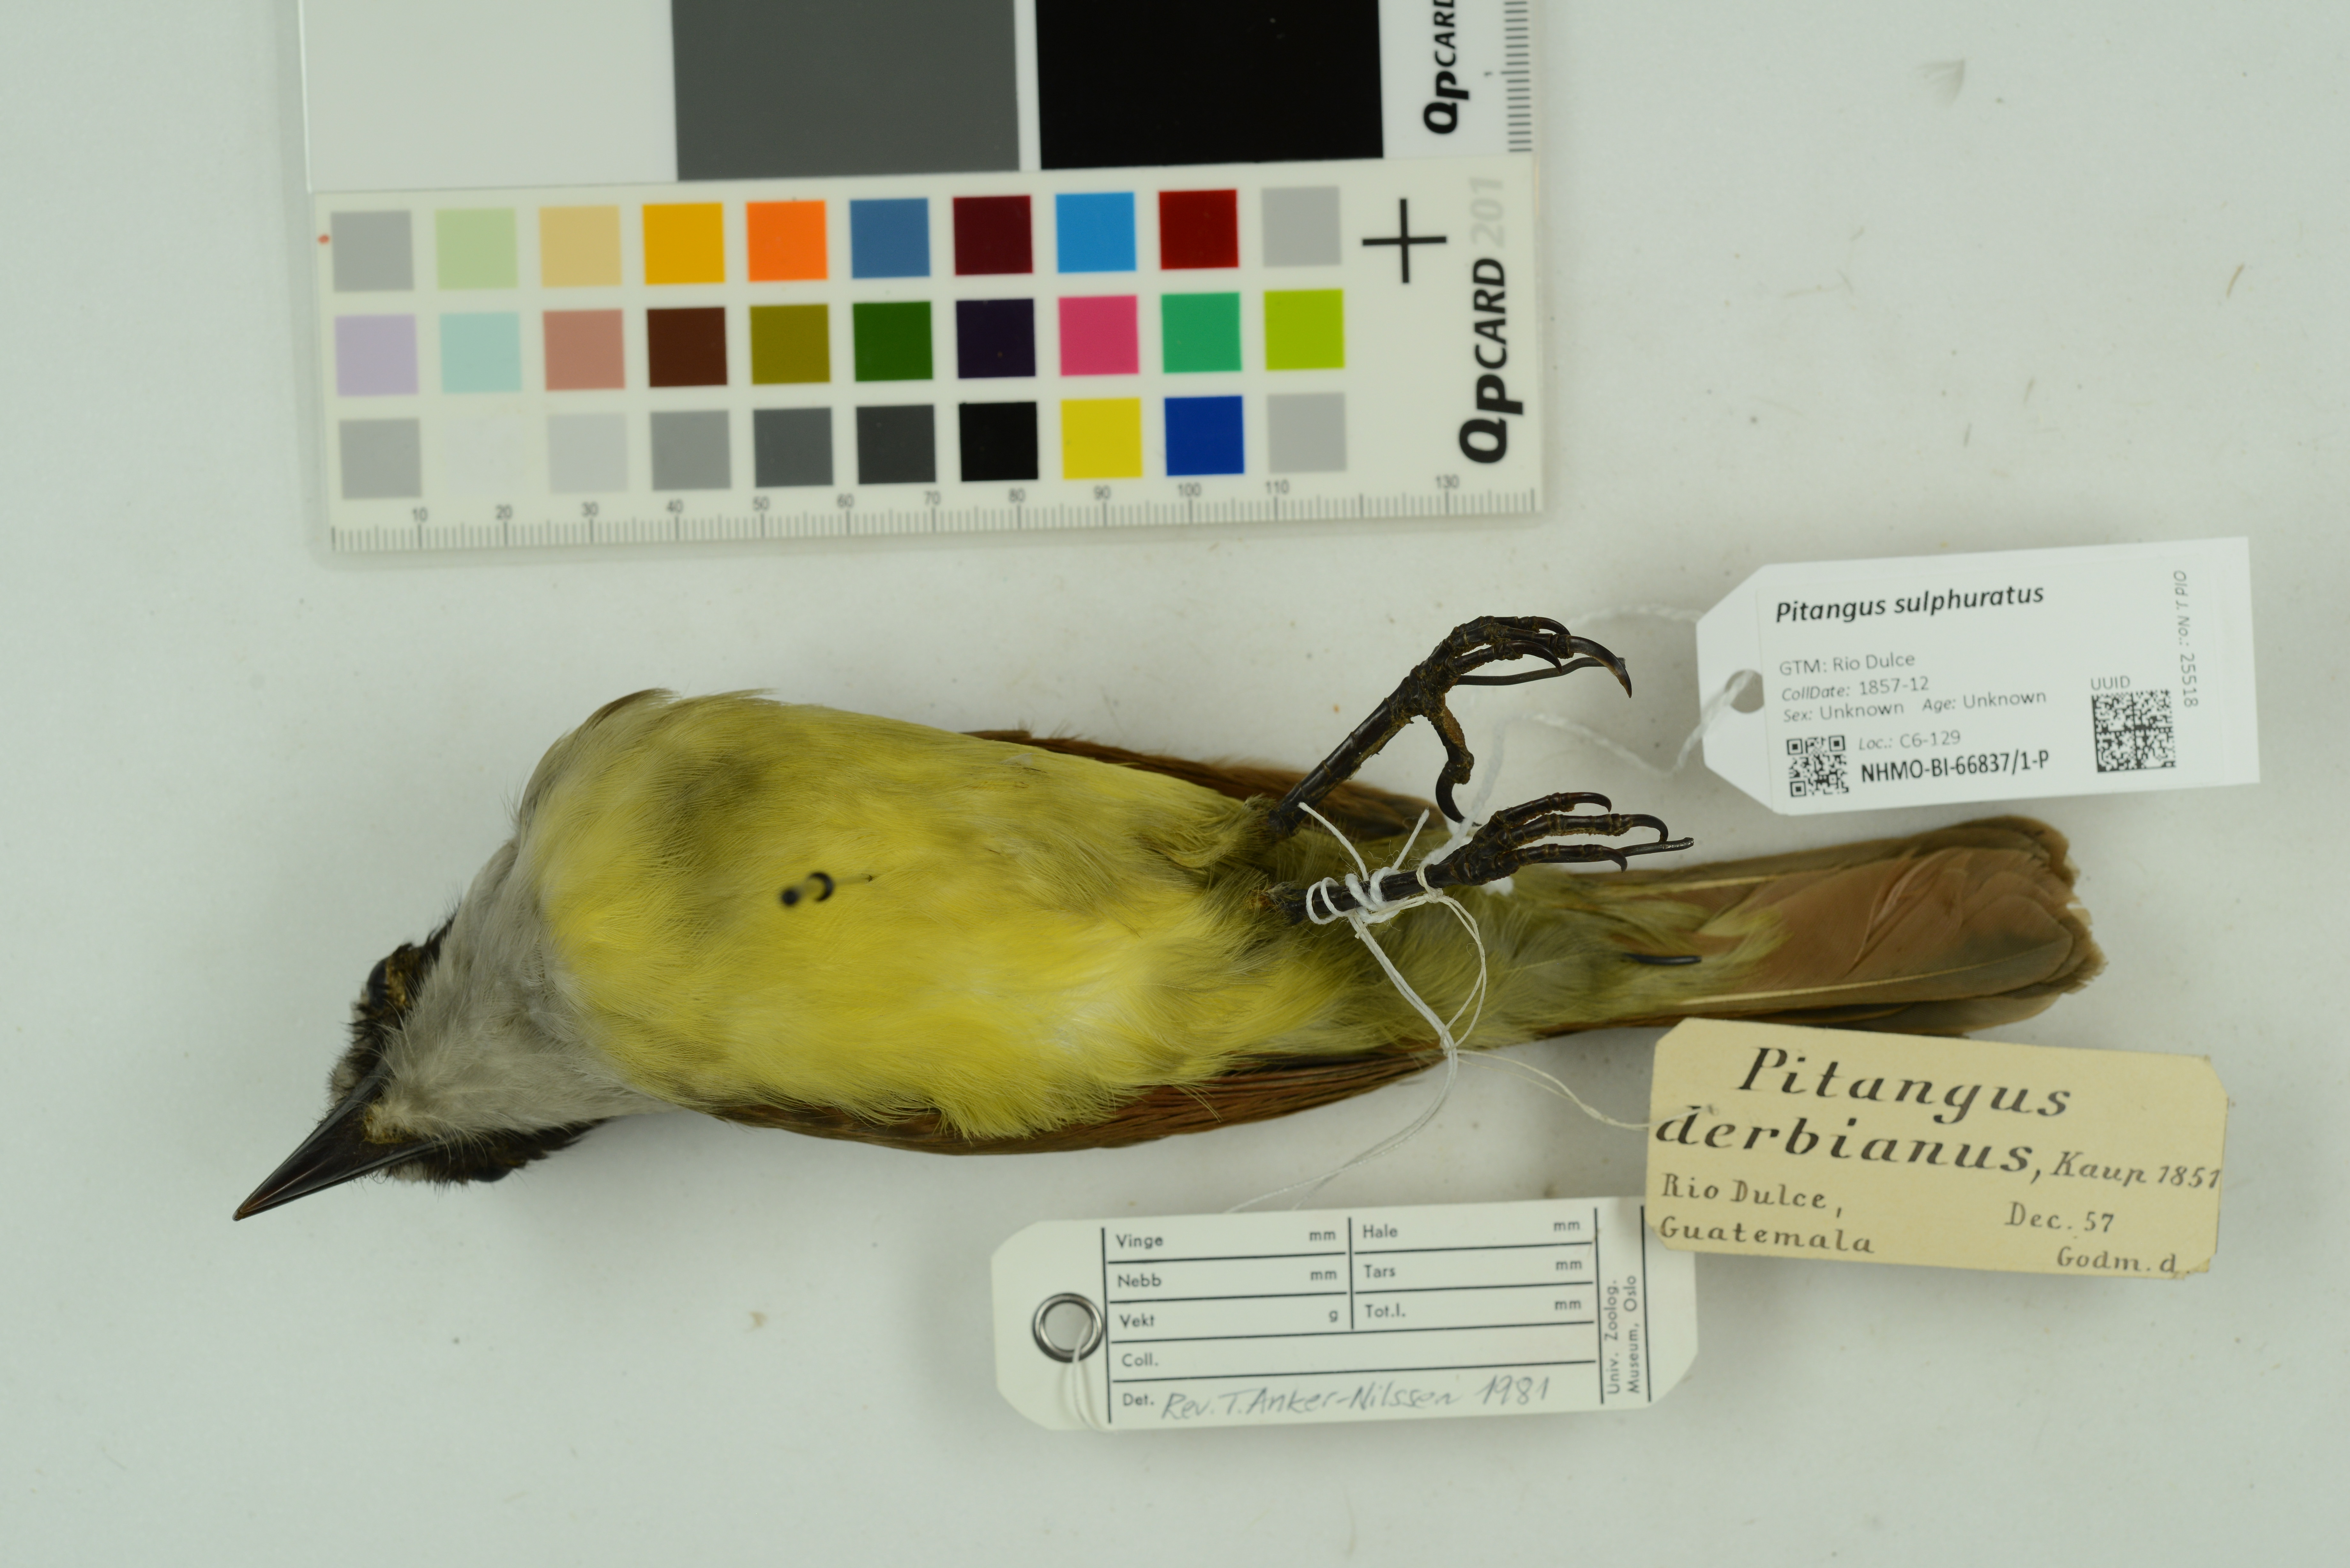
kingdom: Animalia
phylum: Chordata
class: Aves
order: Passeriformes
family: Tyrannidae
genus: Pitangus
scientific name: Pitangus sulphuratus
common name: Great kiskadee
